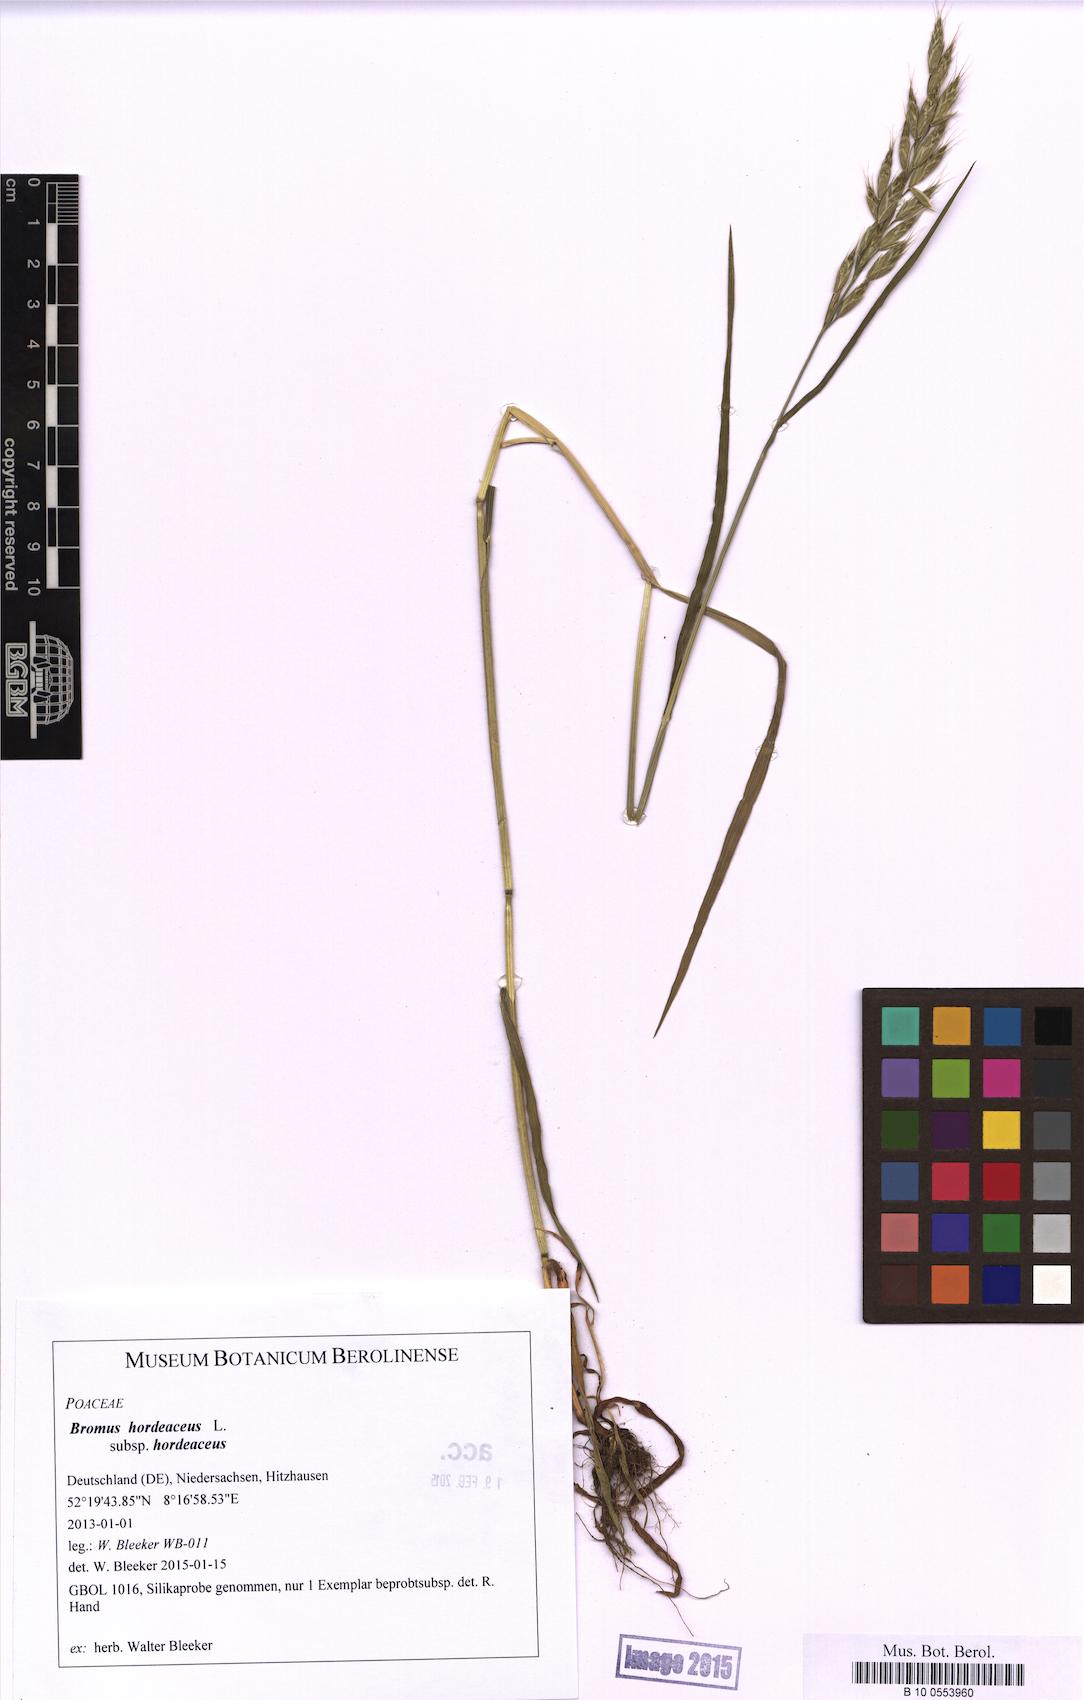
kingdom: Plantae
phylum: Tracheophyta
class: Liliopsida
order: Poales
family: Poaceae
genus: Bromus
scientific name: Bromus hordeaceus
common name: Soft brome
